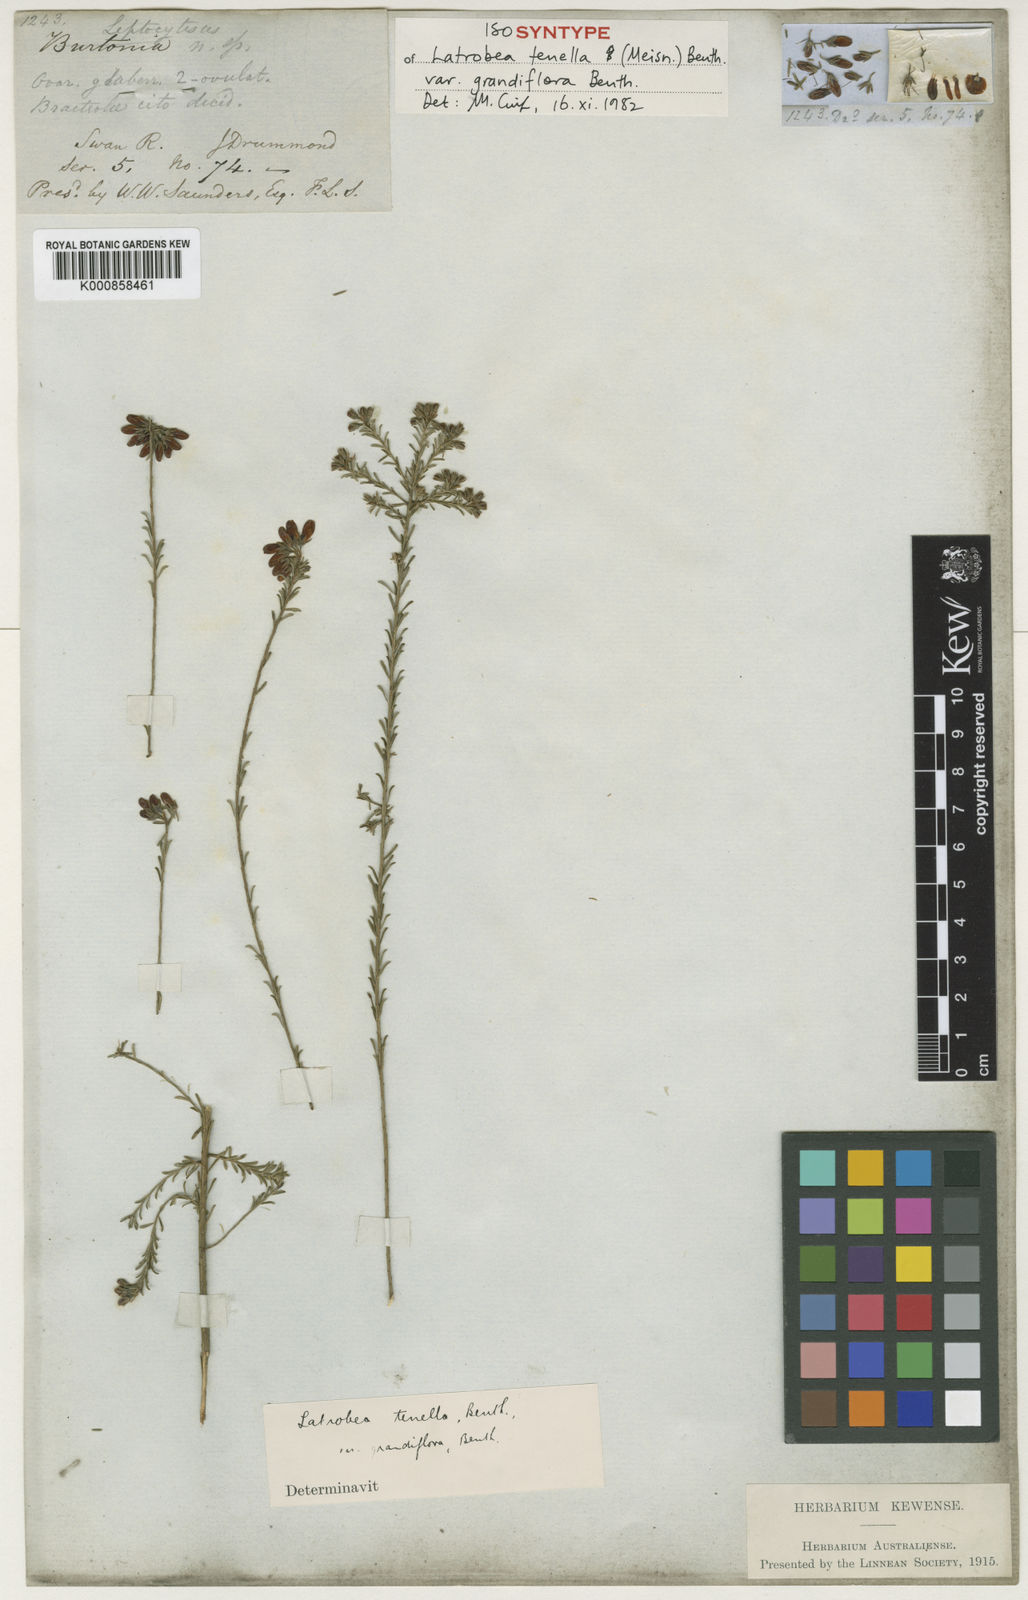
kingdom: Plantae
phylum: Tracheophyta
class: Magnoliopsida
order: Fabales
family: Fabaceae
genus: Latrobea
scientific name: Latrobea tenella
